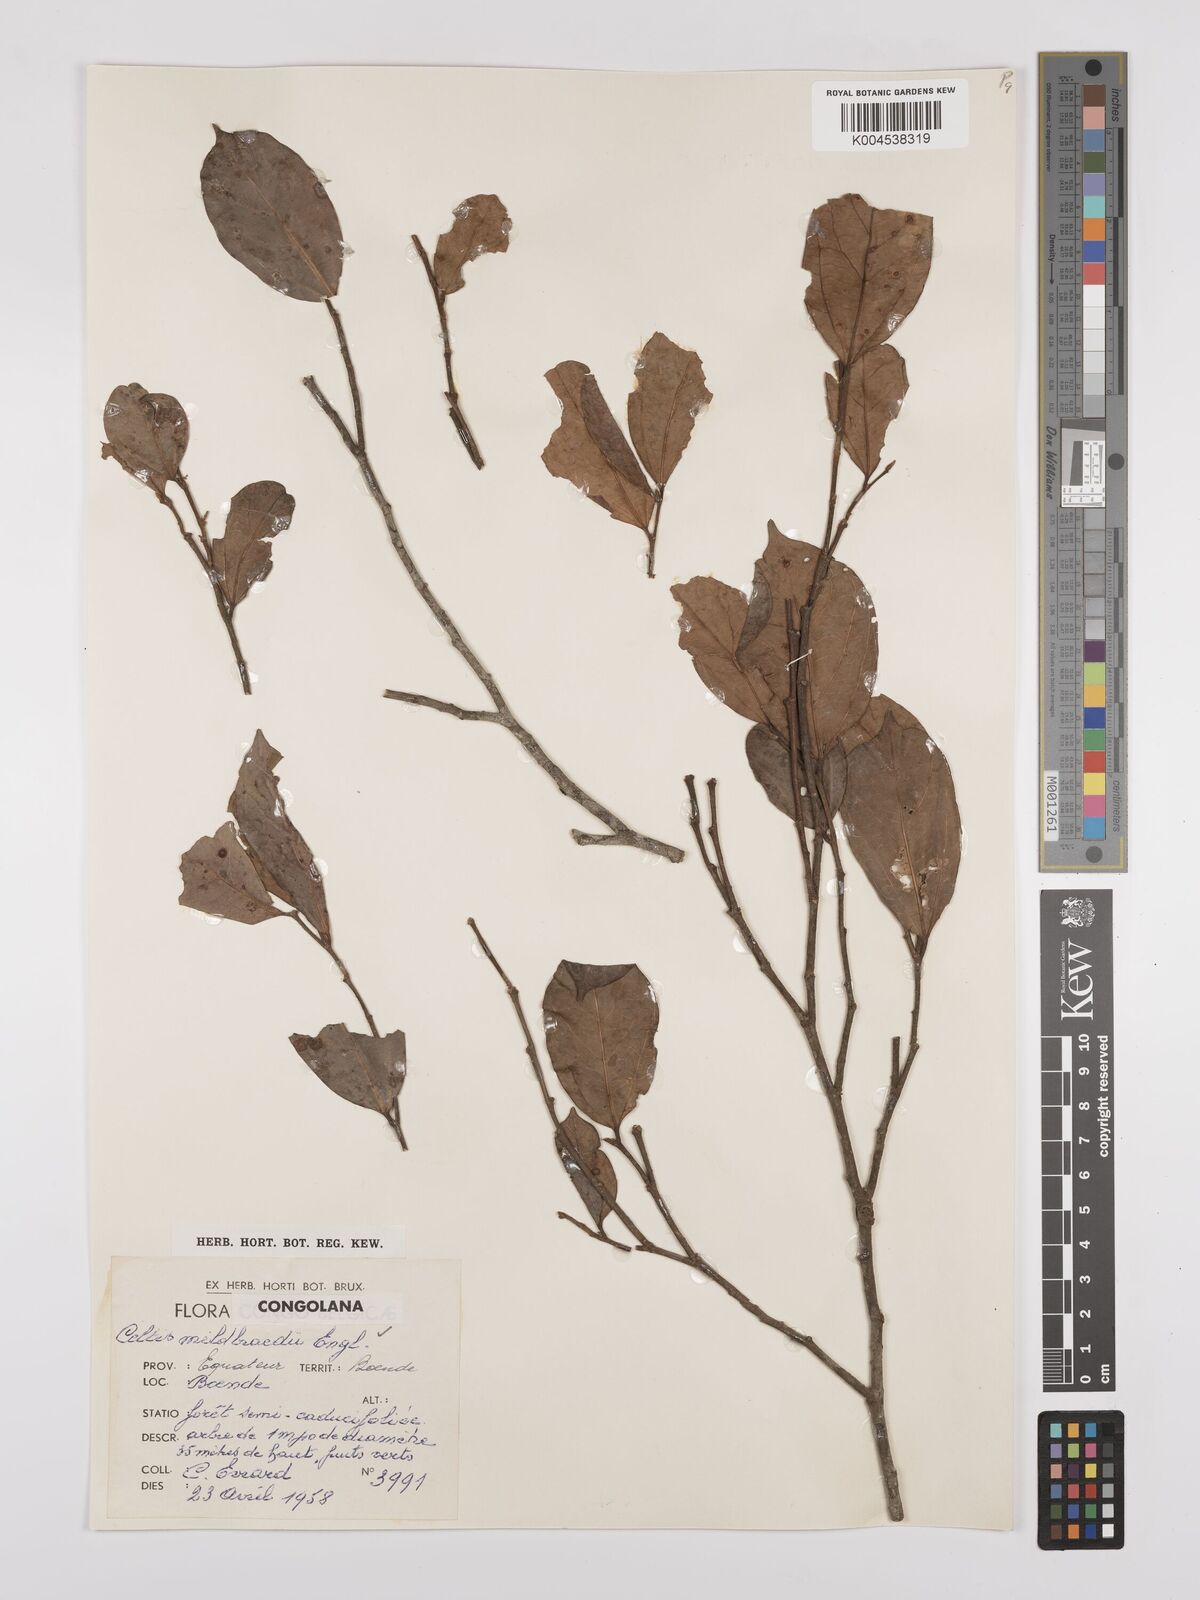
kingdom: Plantae
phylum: Tracheophyta
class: Magnoliopsida
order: Rosales
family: Cannabaceae
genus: Celtis
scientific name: Celtis mildbraedii
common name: Red-fruited stinkwood
